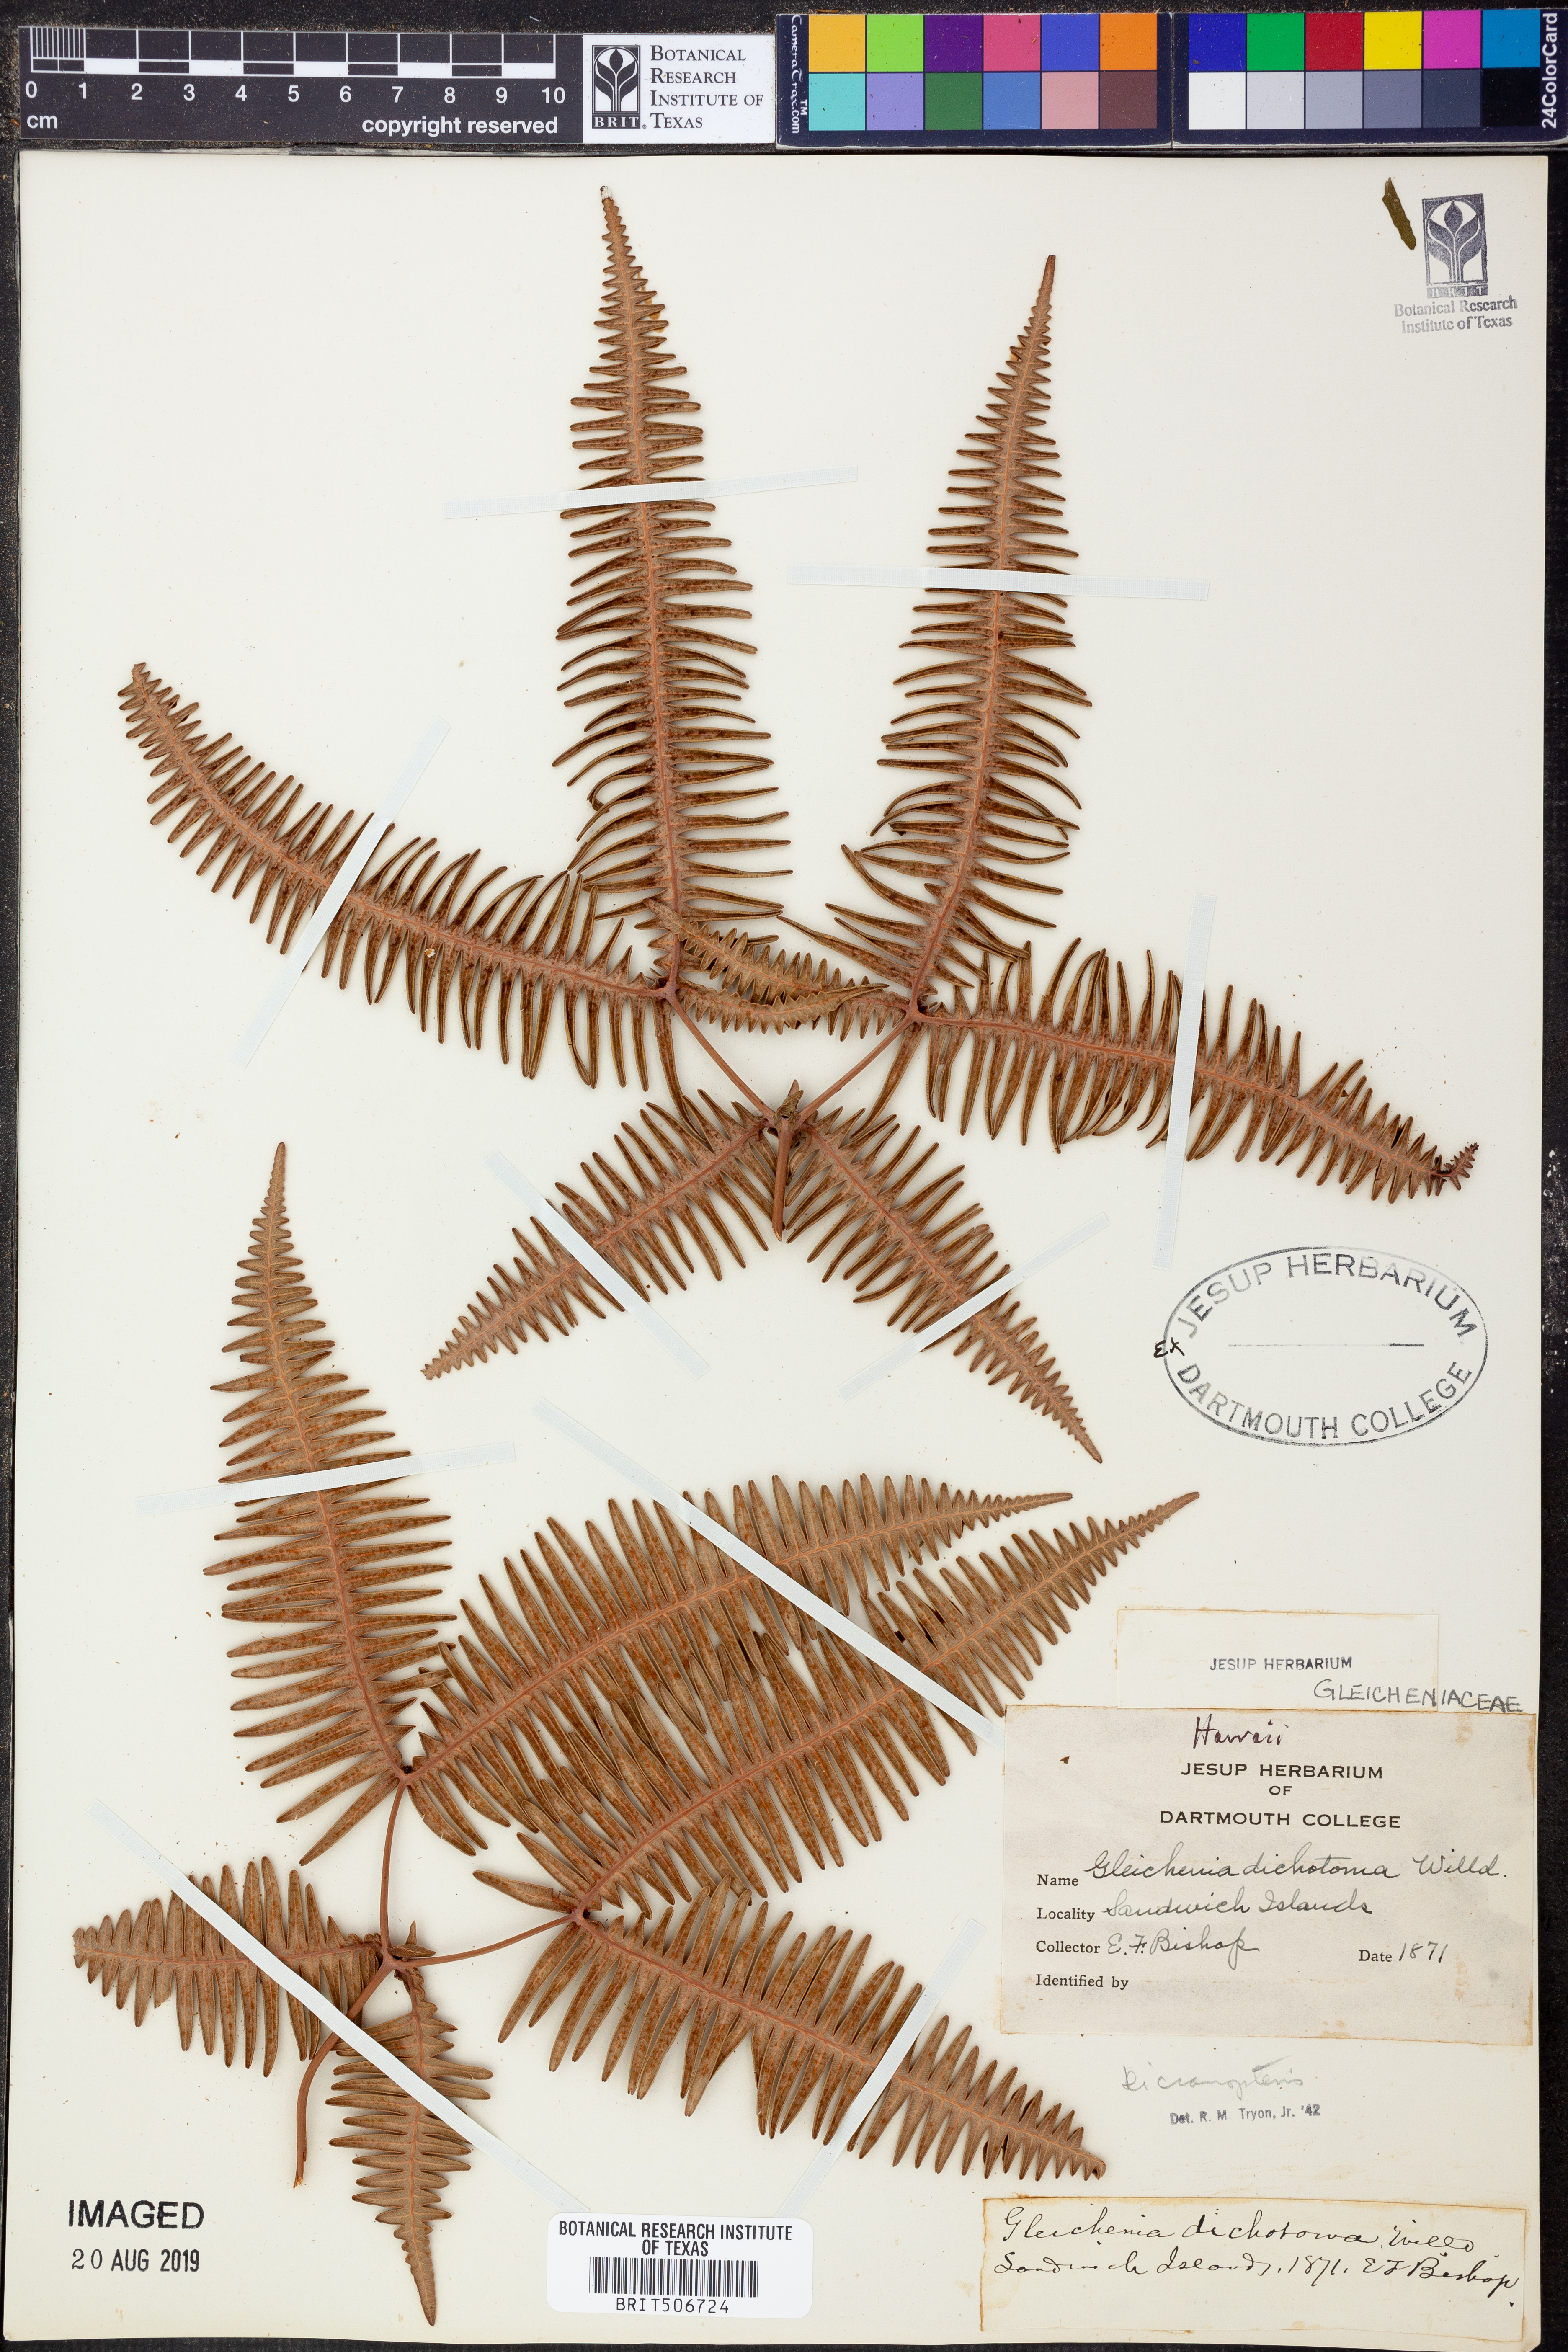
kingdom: Plantae
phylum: Tracheophyta
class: Polypodiopsida
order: Gleicheniales
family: Gleicheniaceae
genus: Dicranopteris
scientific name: Dicranopteris
